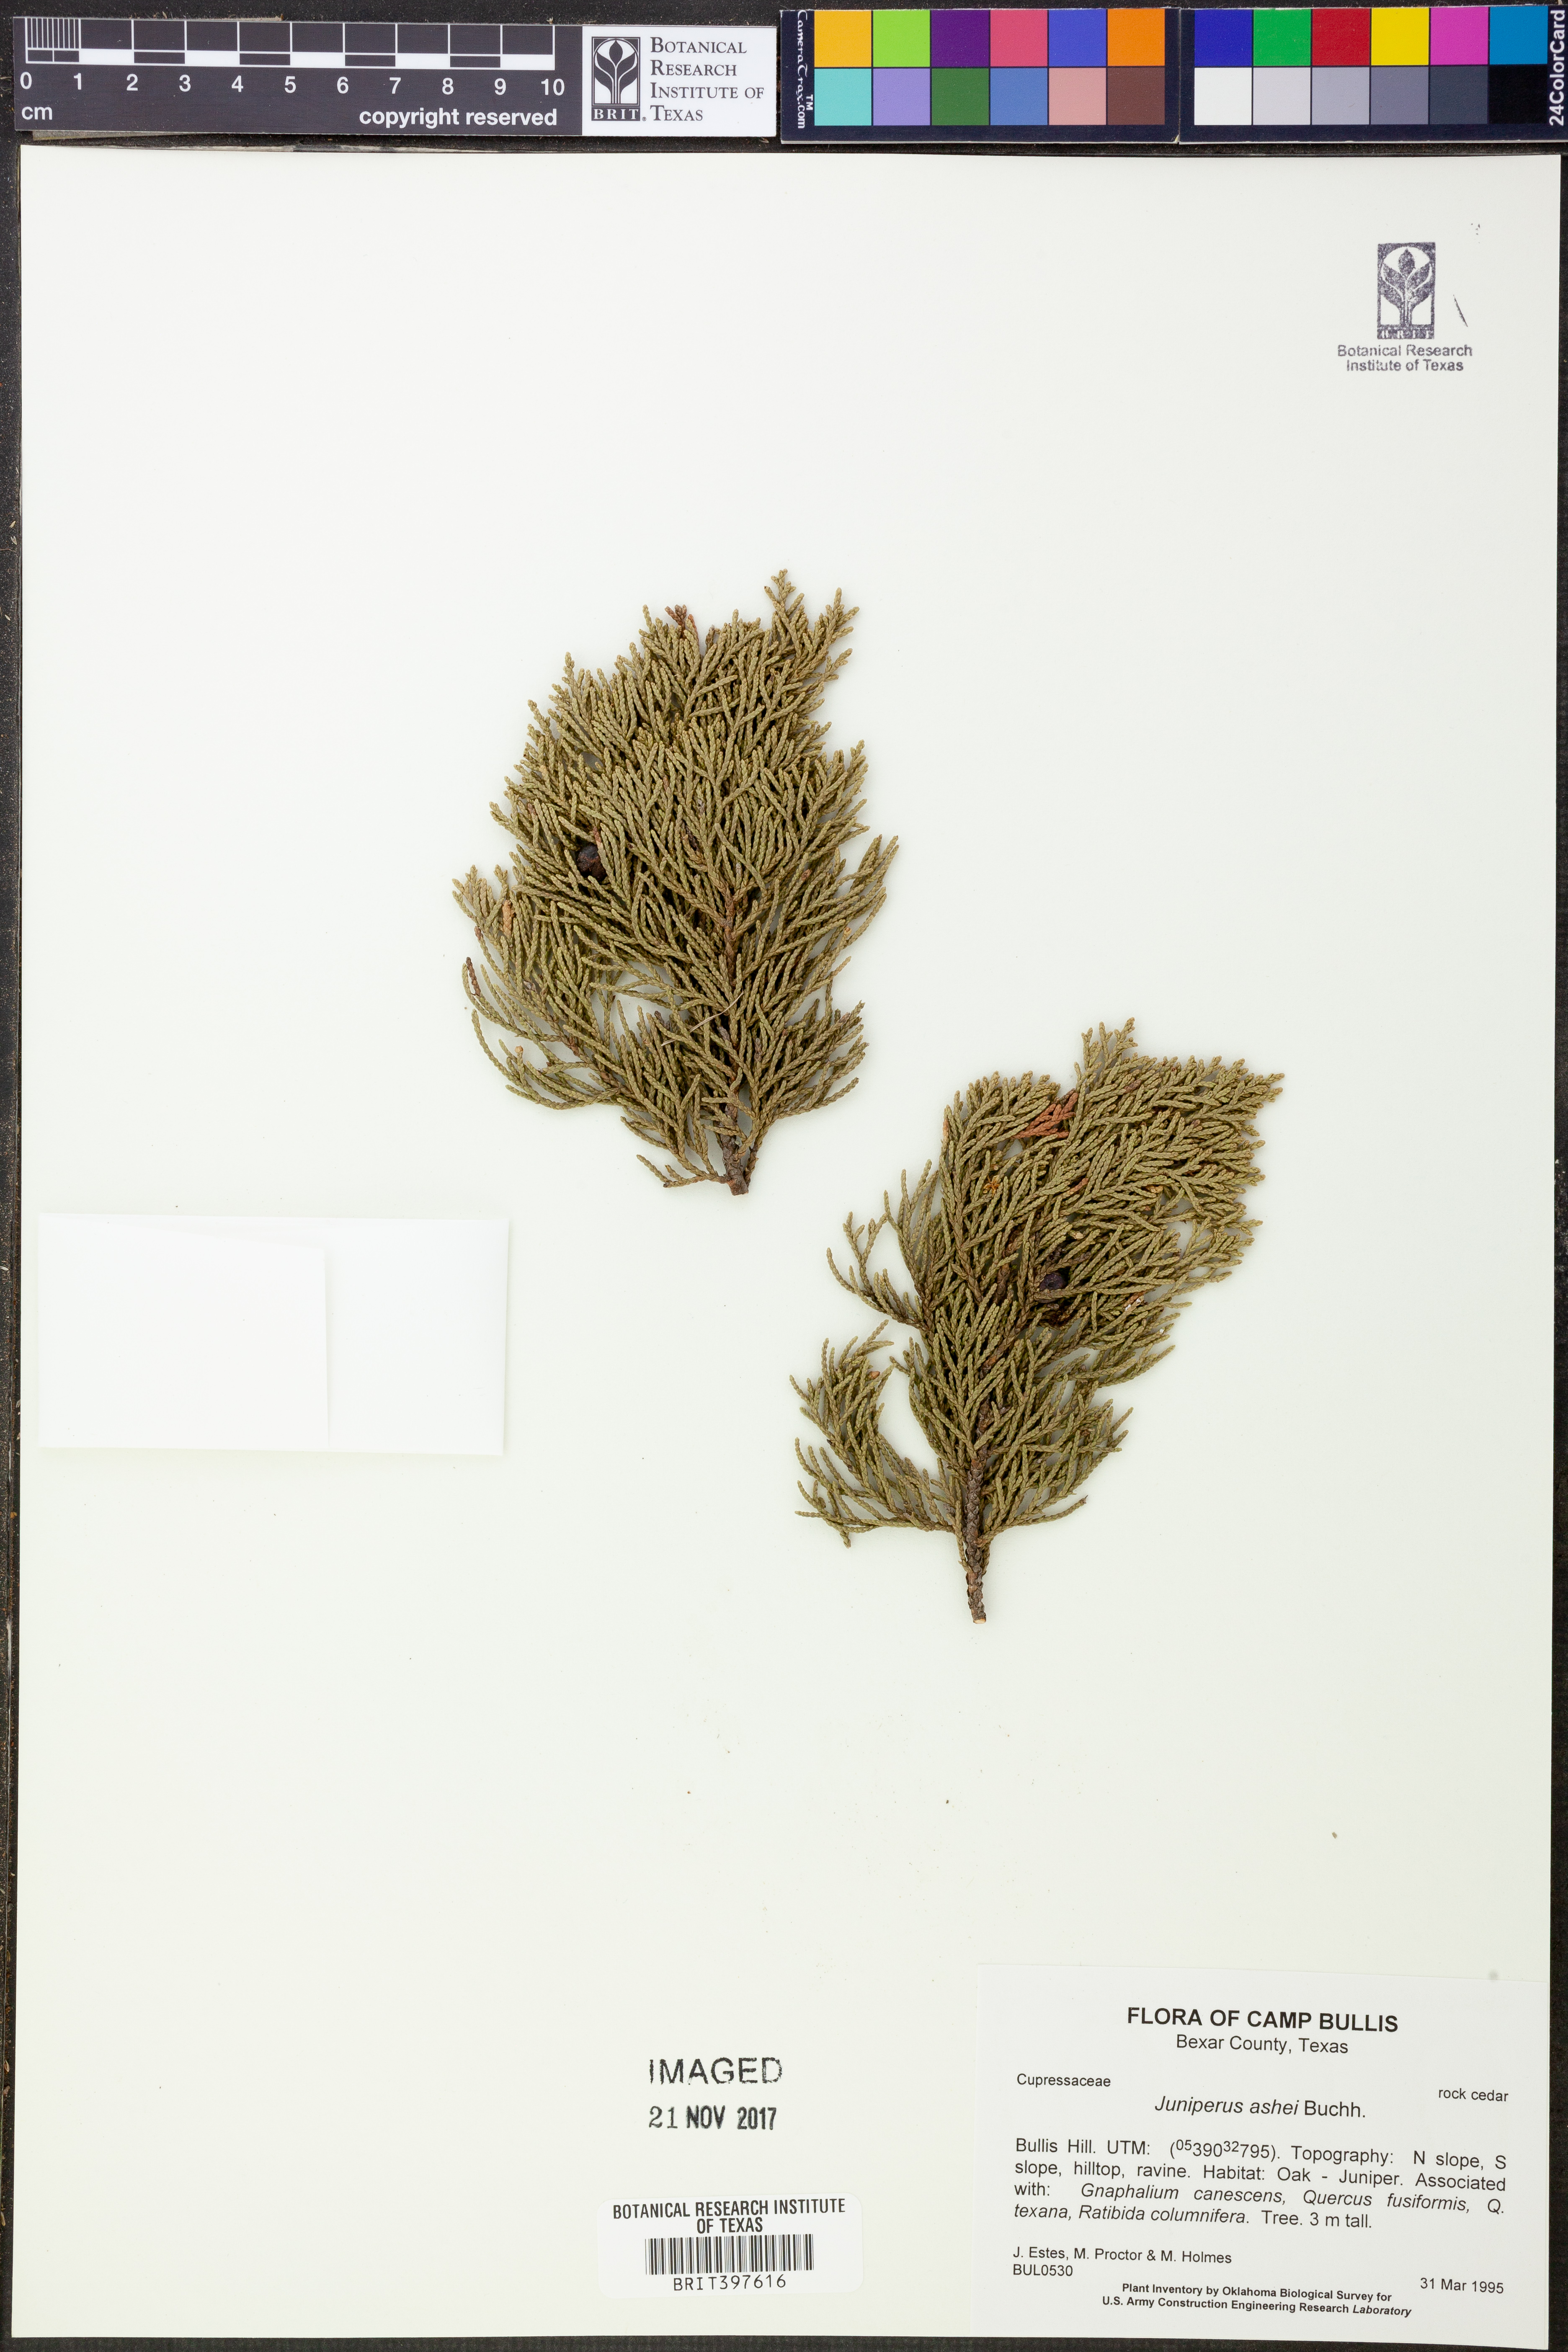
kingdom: Plantae
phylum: Tracheophyta
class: Pinopsida
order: Pinales
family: Cupressaceae
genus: Juniperus
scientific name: Juniperus ashei
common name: Mexican juniper
